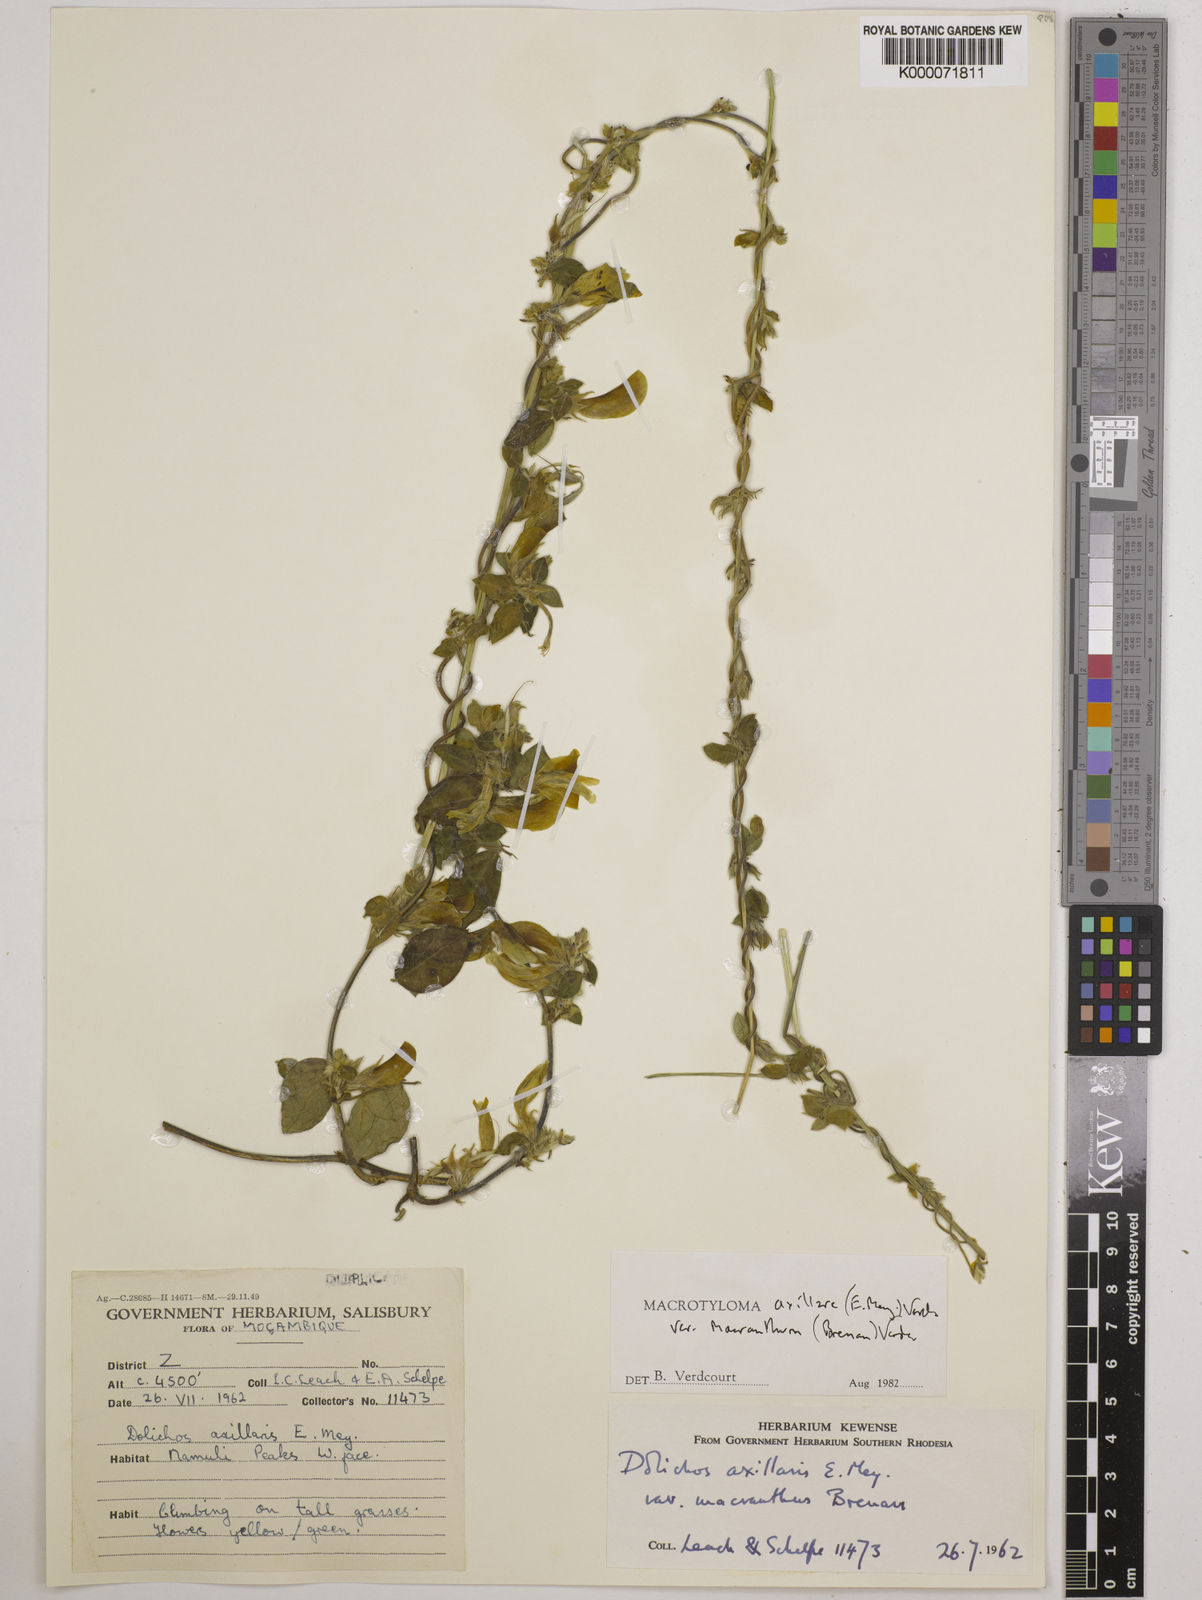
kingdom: Plantae
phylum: Tracheophyta
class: Magnoliopsida
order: Fabales
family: Fabaceae
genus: Macrotyloma
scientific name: Macrotyloma axillare
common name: Perennial horsegram
